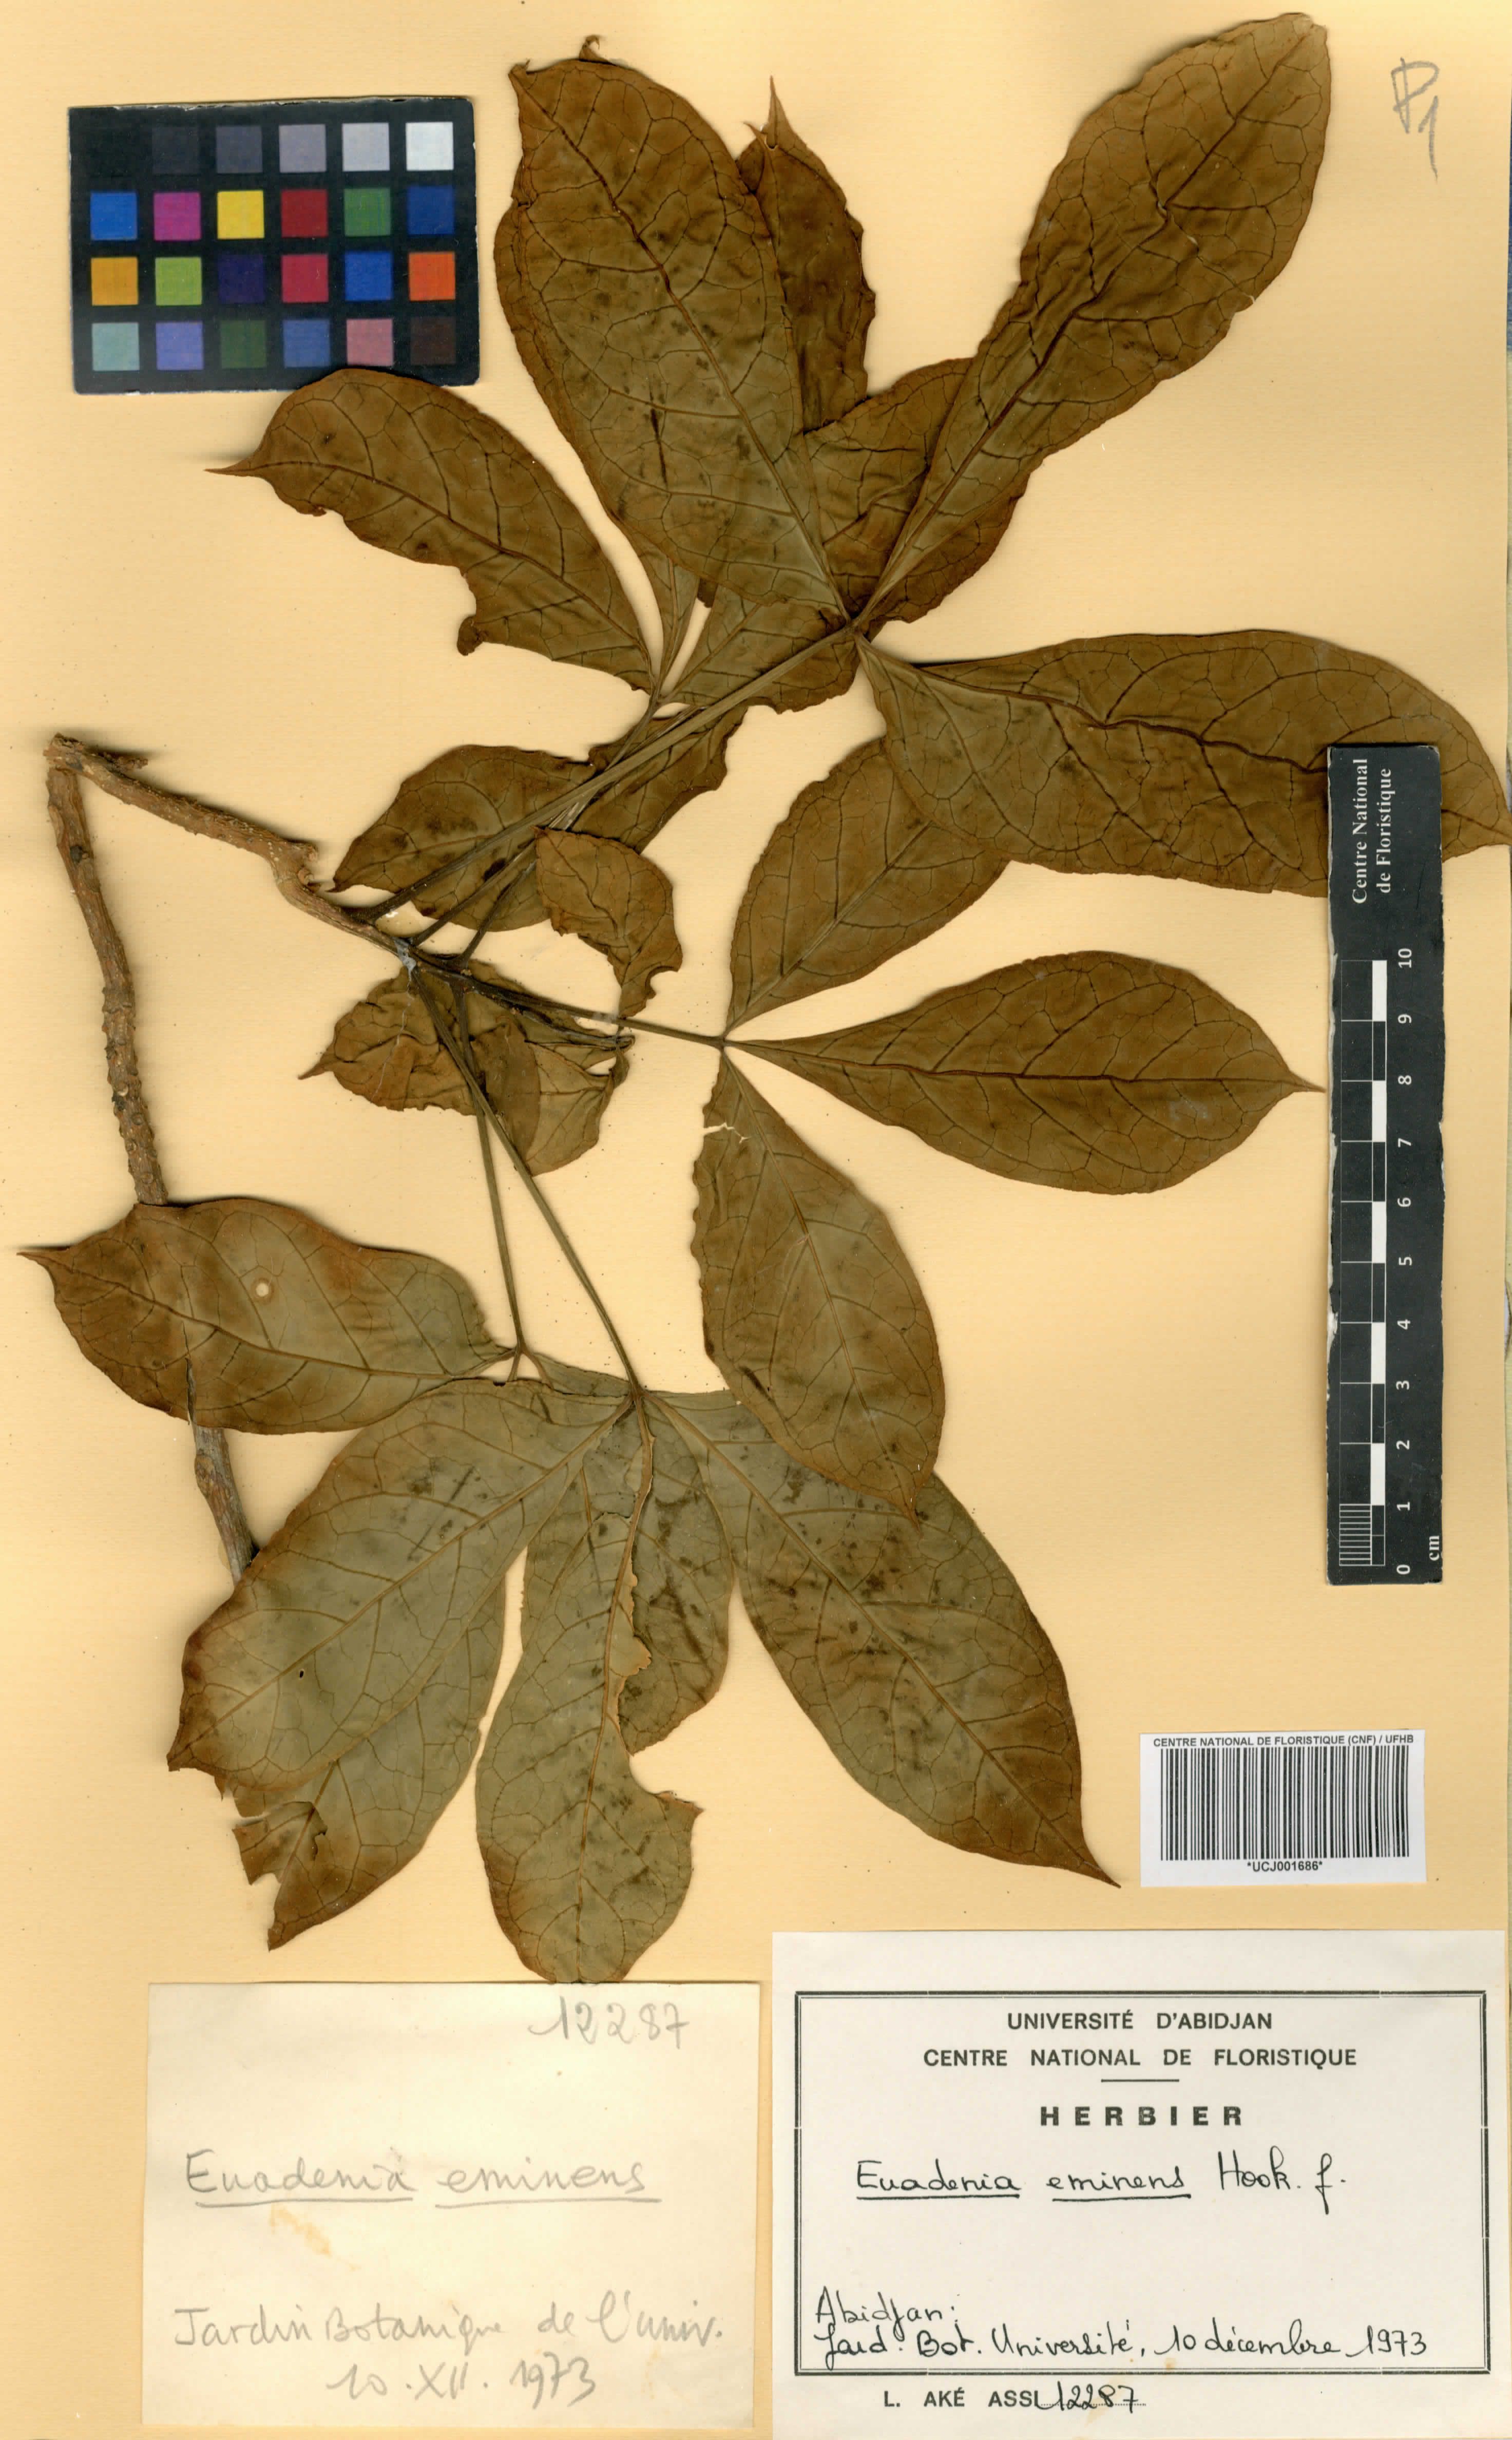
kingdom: Plantae
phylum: Tracheophyta
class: Magnoliopsida
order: Brassicales
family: Capparaceae
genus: Euadenia
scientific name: Euadenia eminens
